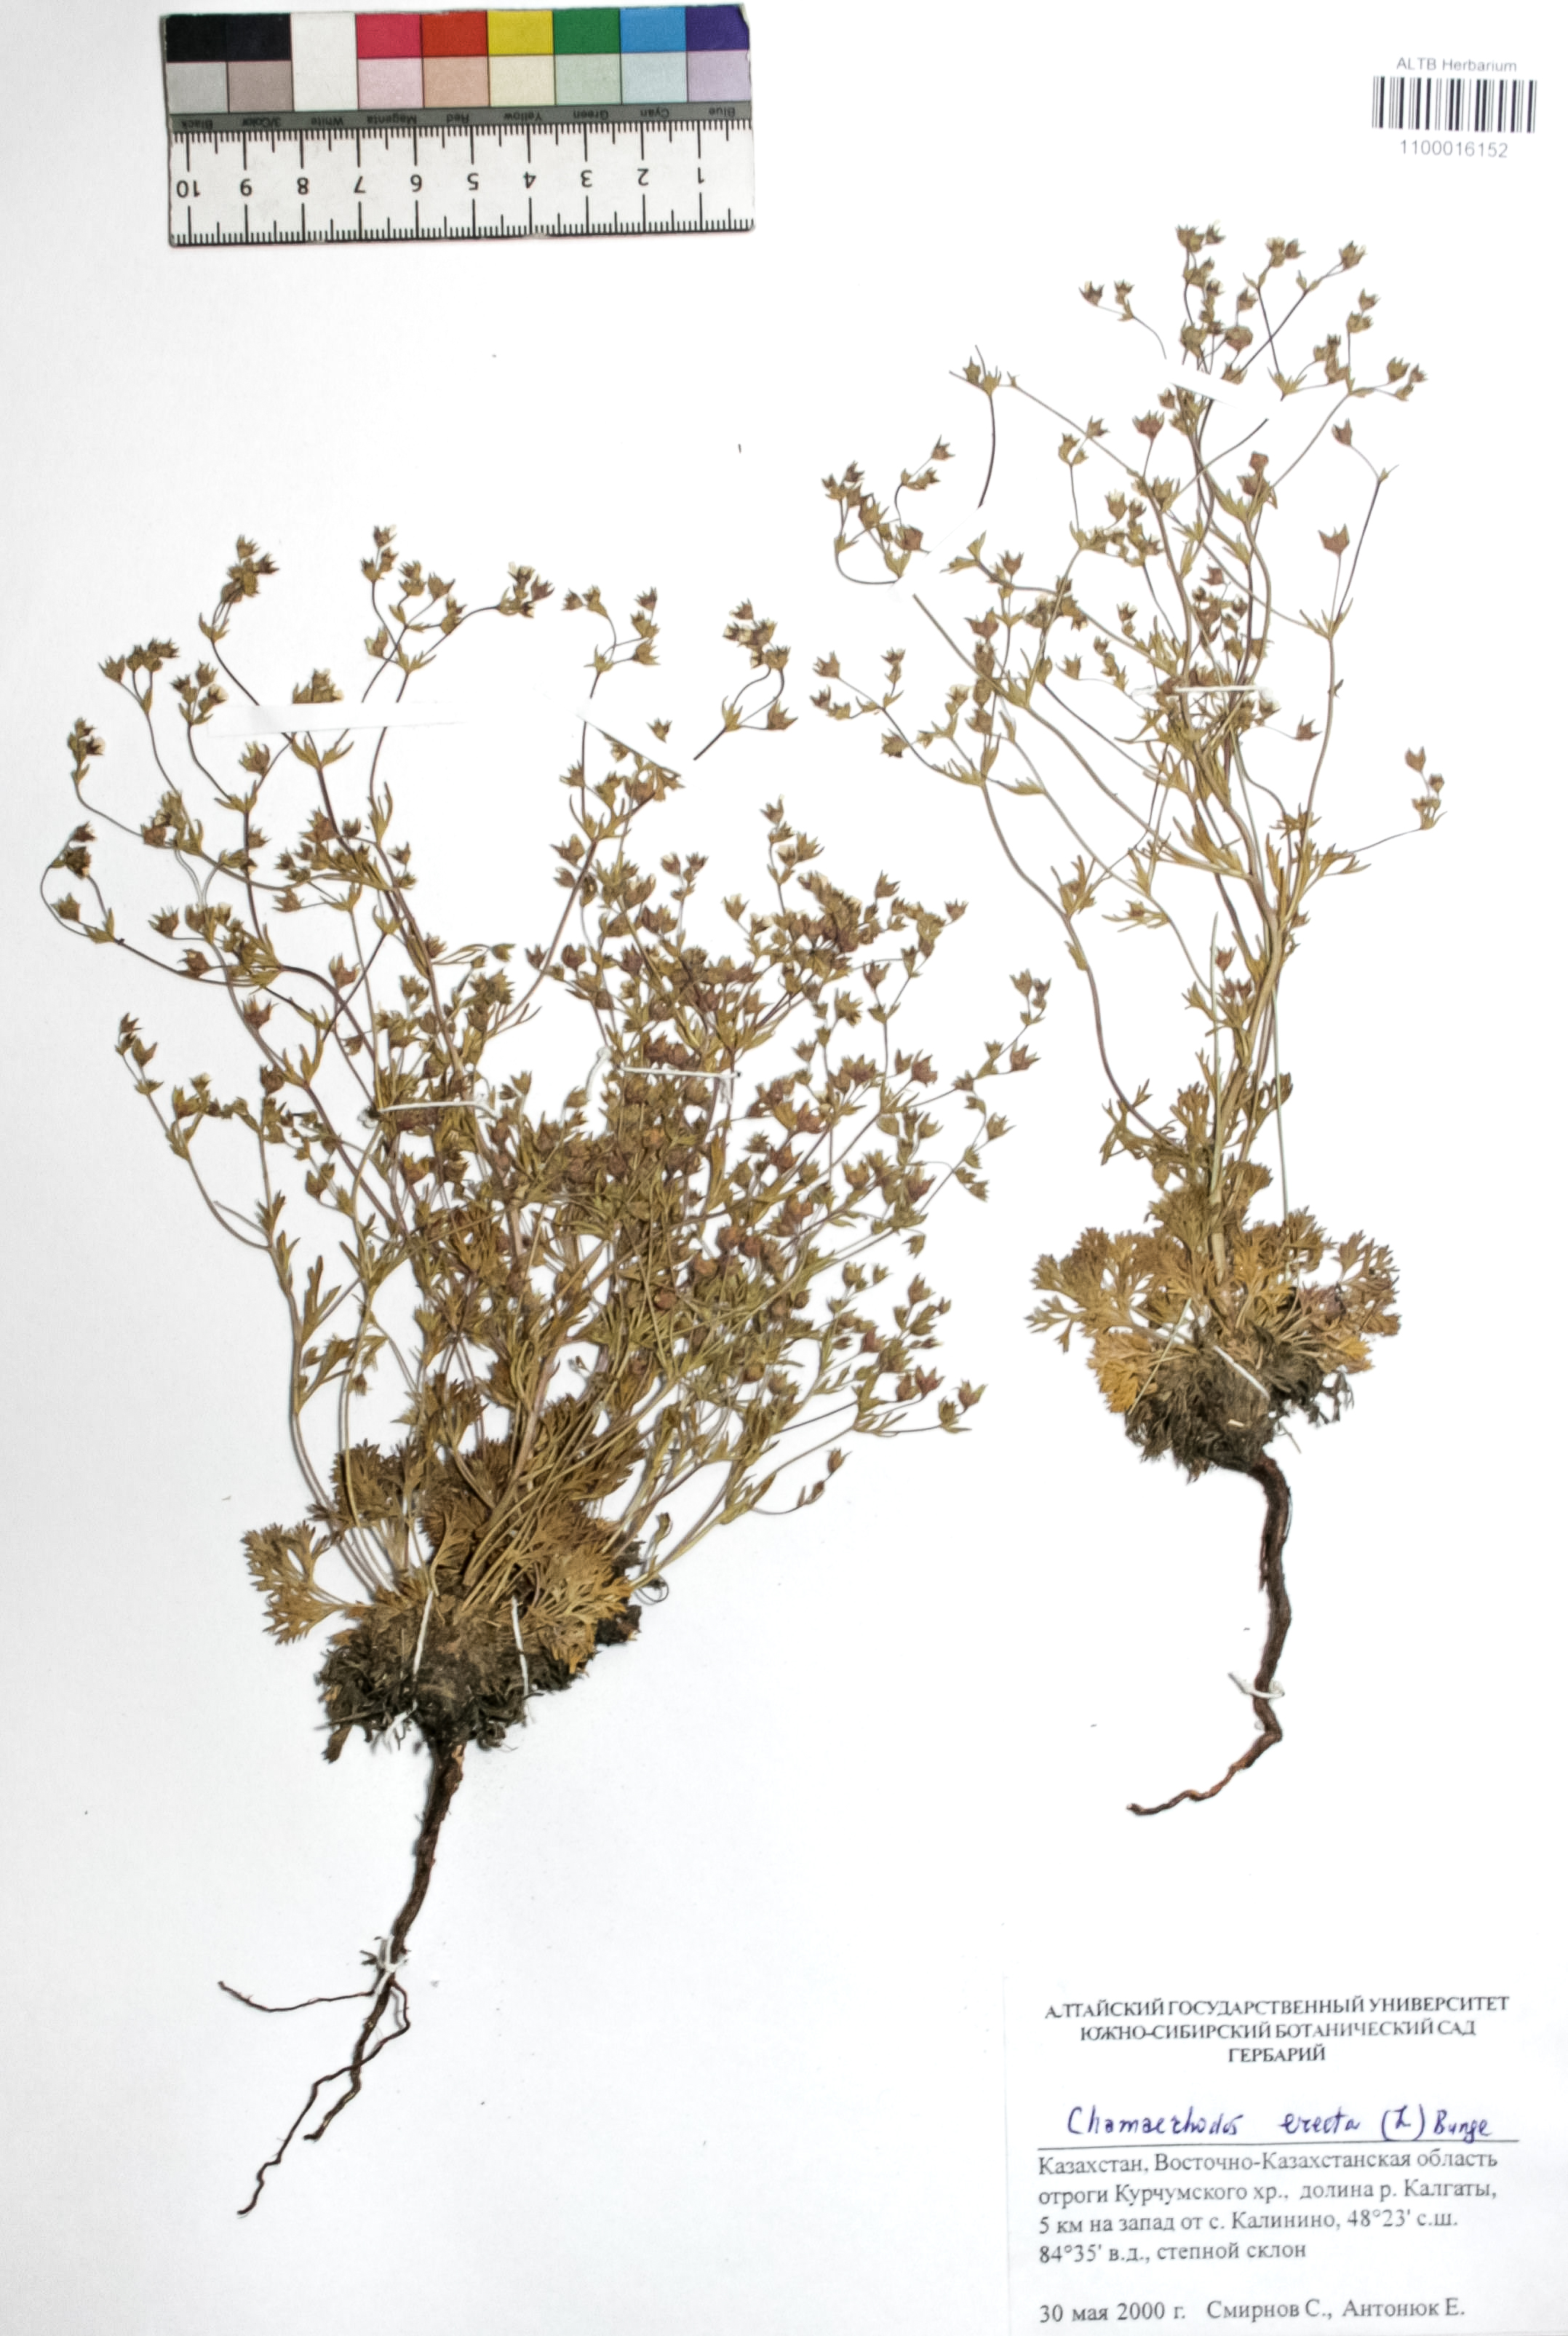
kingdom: Plantae
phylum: Tracheophyta
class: Magnoliopsida
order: Rosales
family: Rosaceae
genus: Chamaerhodos
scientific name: Chamaerhodos erecta
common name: American chamaerhodos
